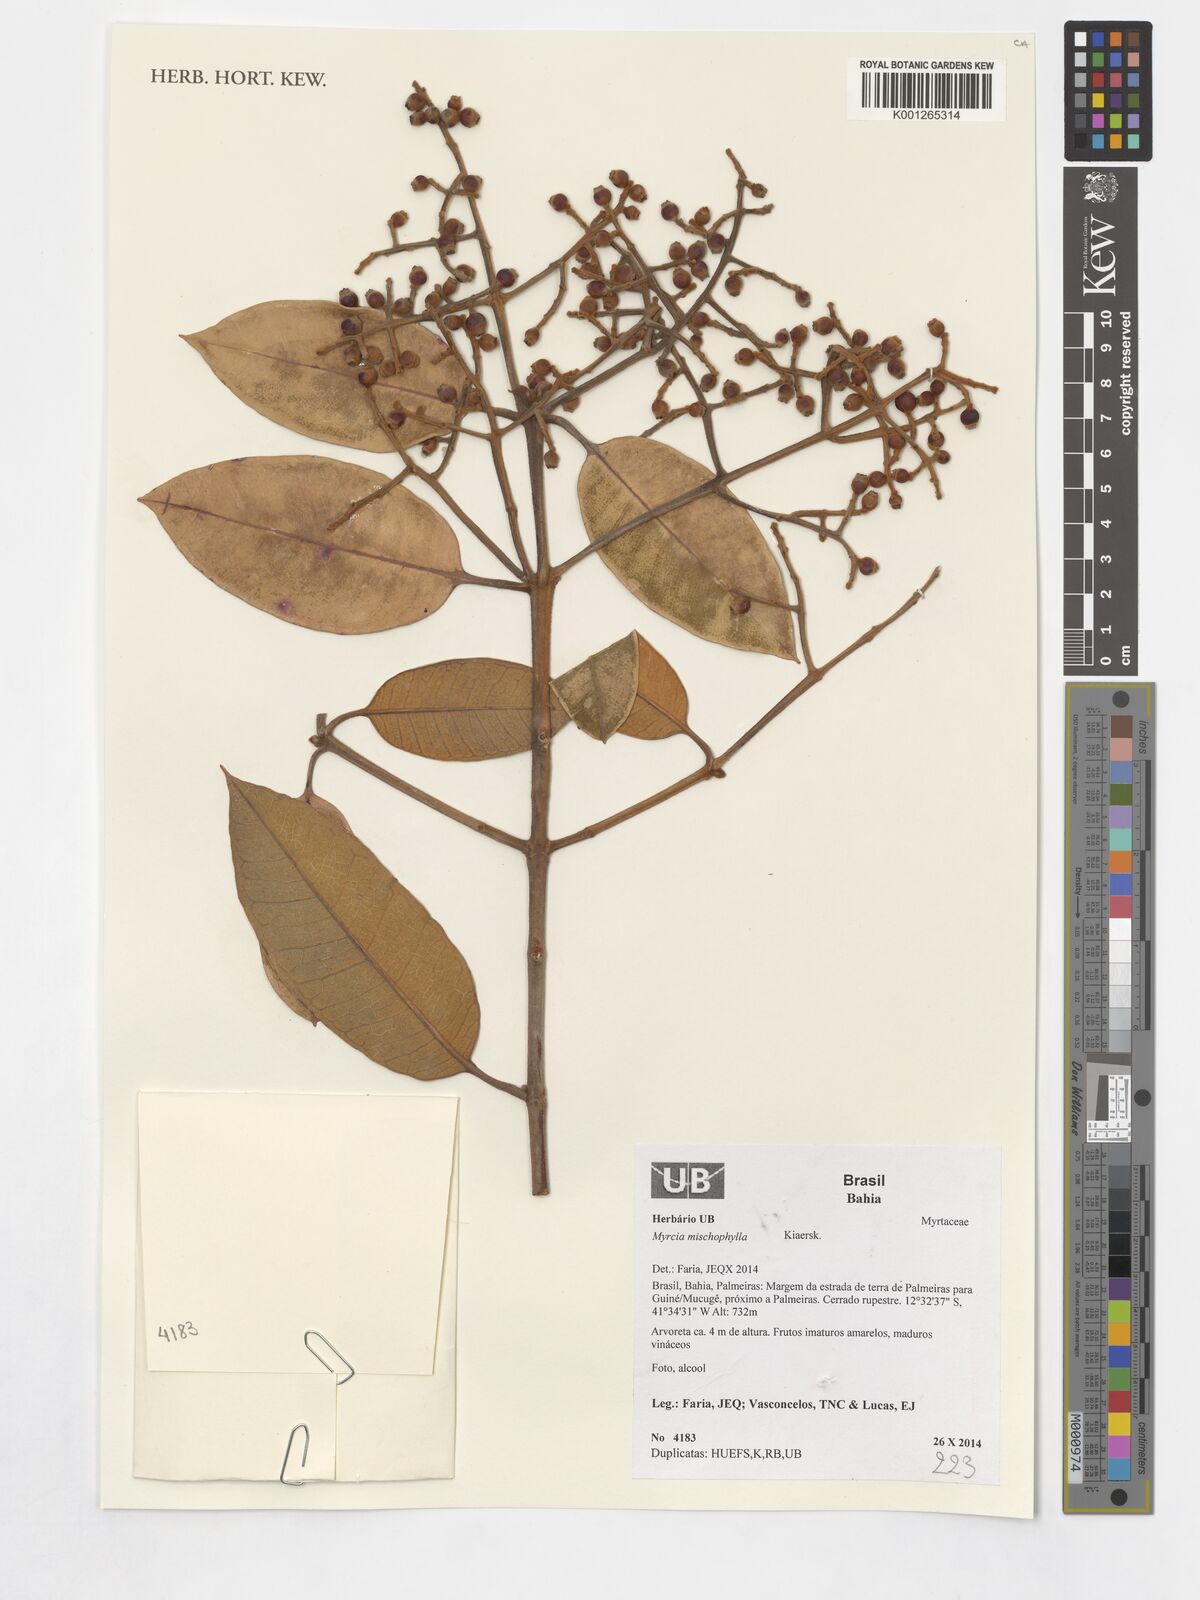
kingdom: Plantae
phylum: Tracheophyta
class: Magnoliopsida
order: Myrtales
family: Myrtaceae
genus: Myrcia
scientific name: Myrcia mischophylla
